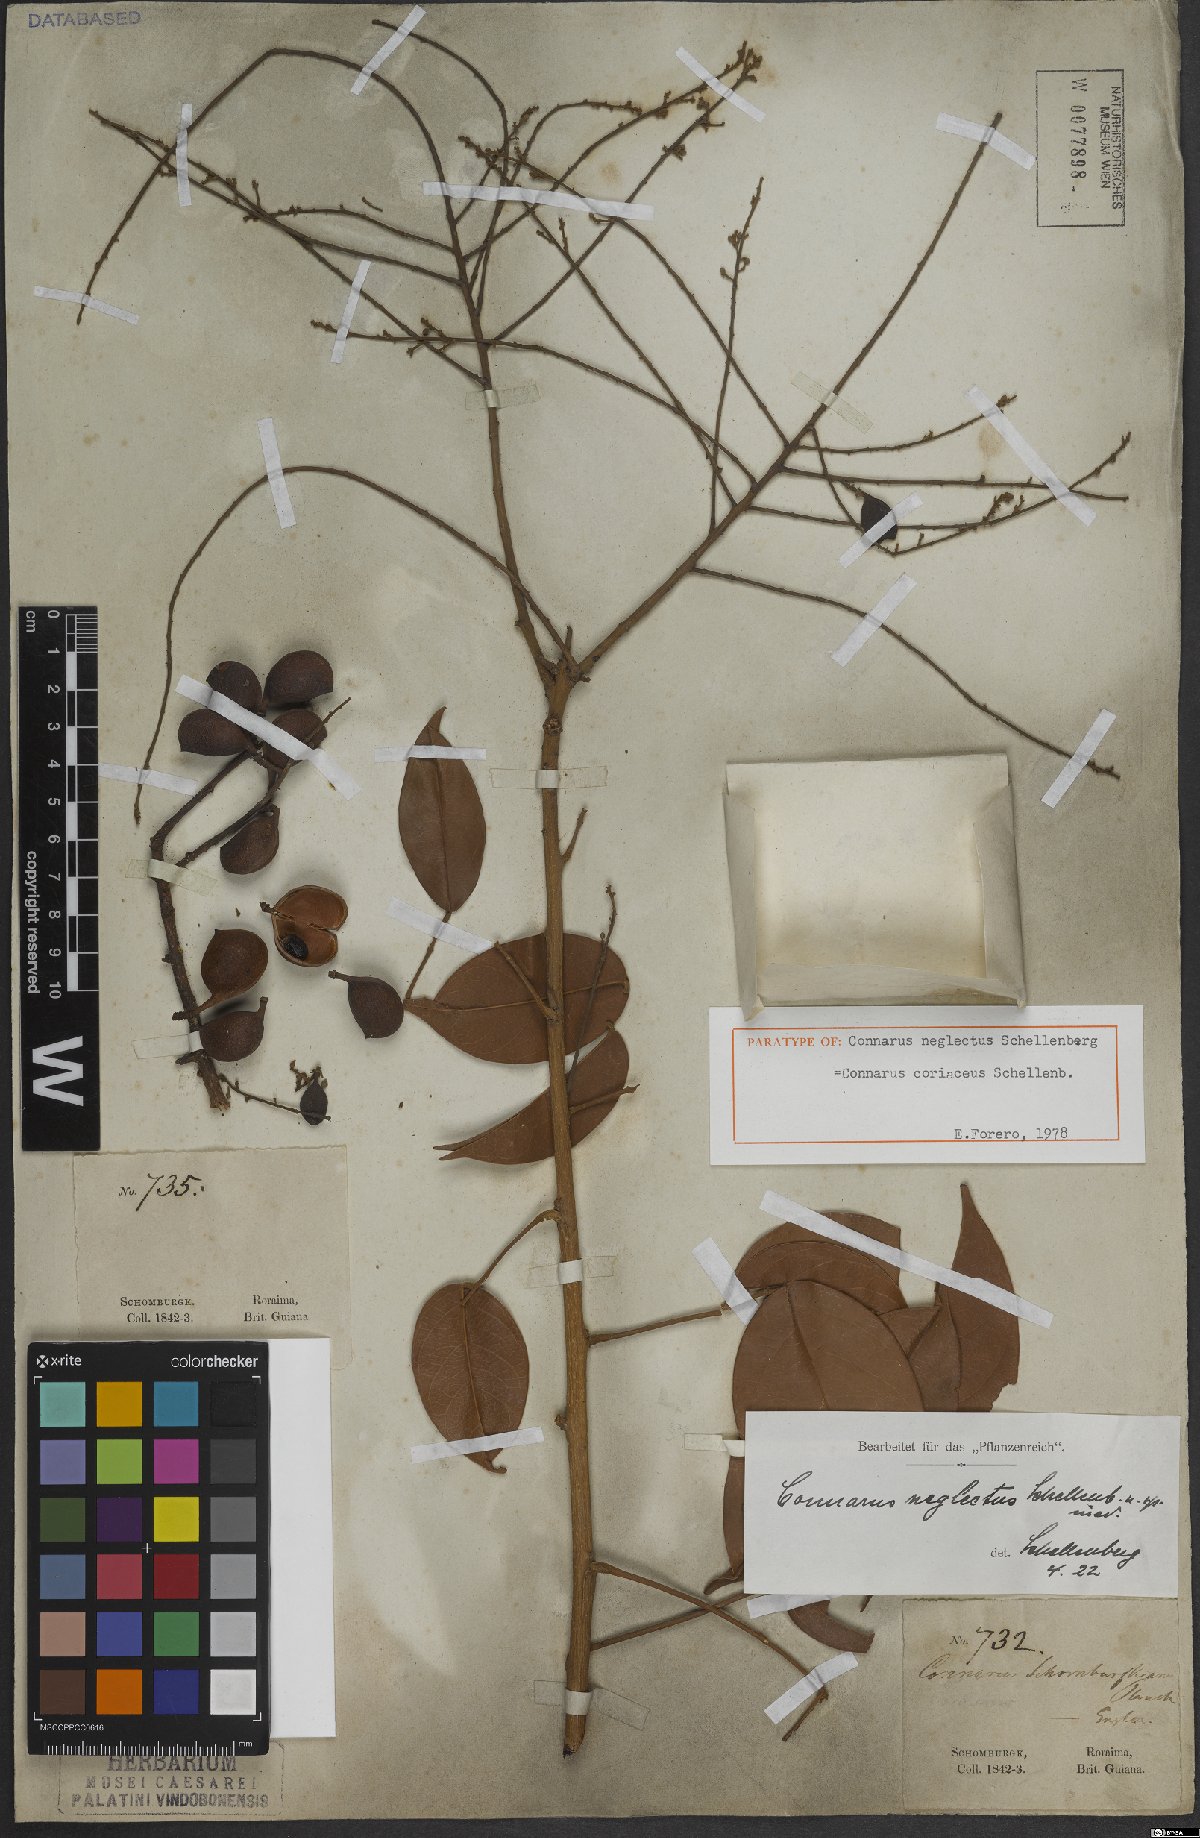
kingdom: Plantae
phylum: Tracheophyta
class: Magnoliopsida
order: Oxalidales
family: Connaraceae
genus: Connarus
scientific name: Connarus coriaceus
